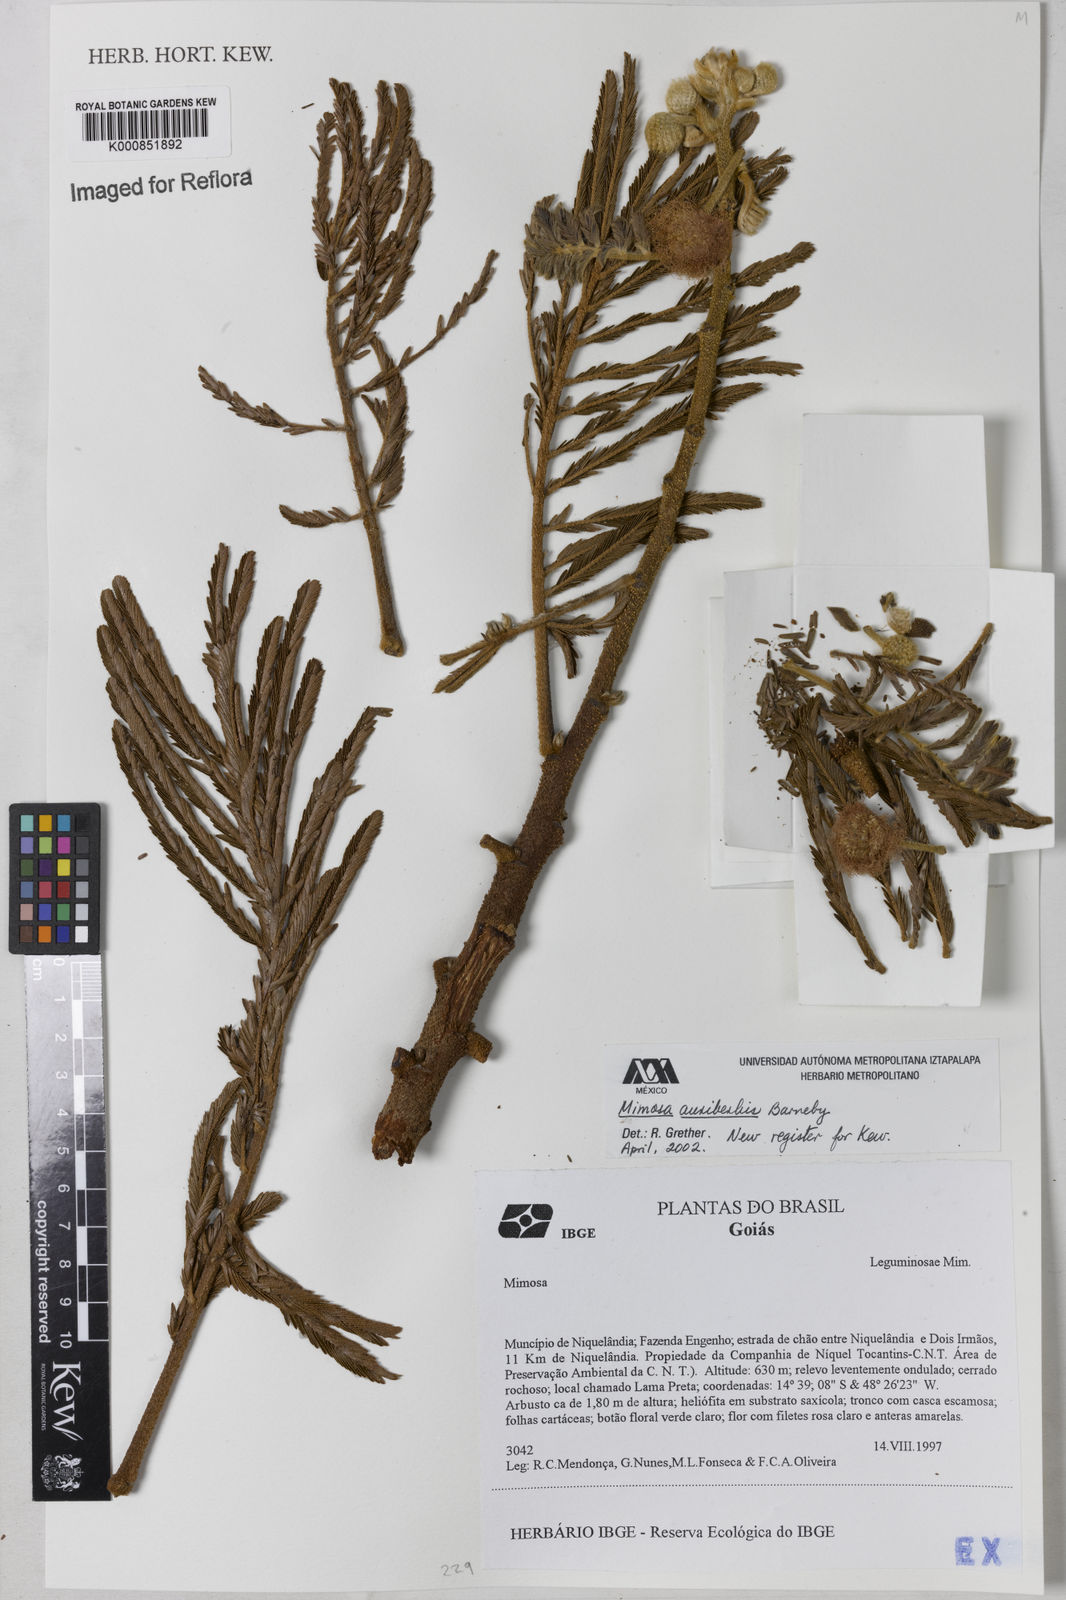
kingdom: Plantae
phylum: Tracheophyta
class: Magnoliopsida
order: Fabales
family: Fabaceae
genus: Mimosa
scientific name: Mimosa foliolosa
